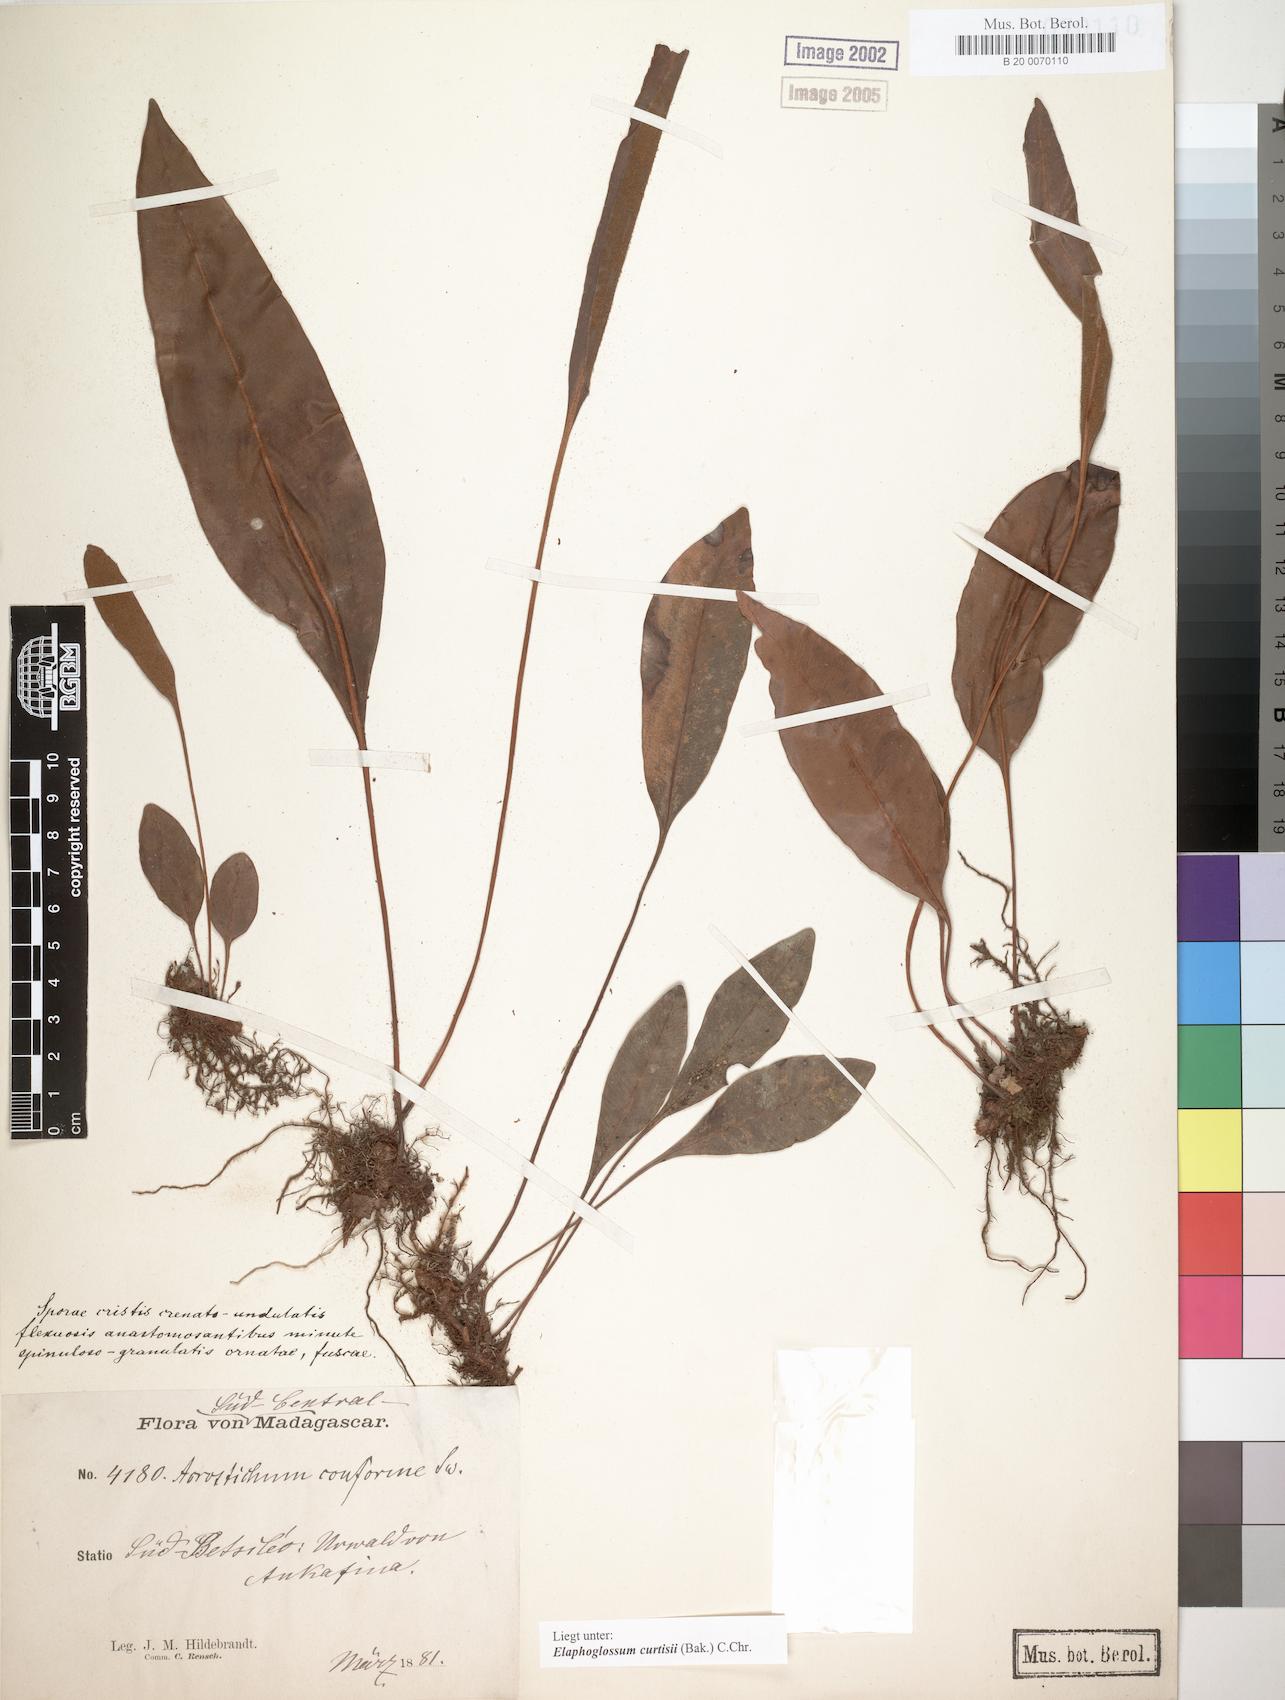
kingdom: Plantae
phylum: Tracheophyta
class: Polypodiopsida
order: Polypodiales
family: Dryopteridaceae
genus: Elaphoglossum
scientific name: Elaphoglossum lepervanchii
